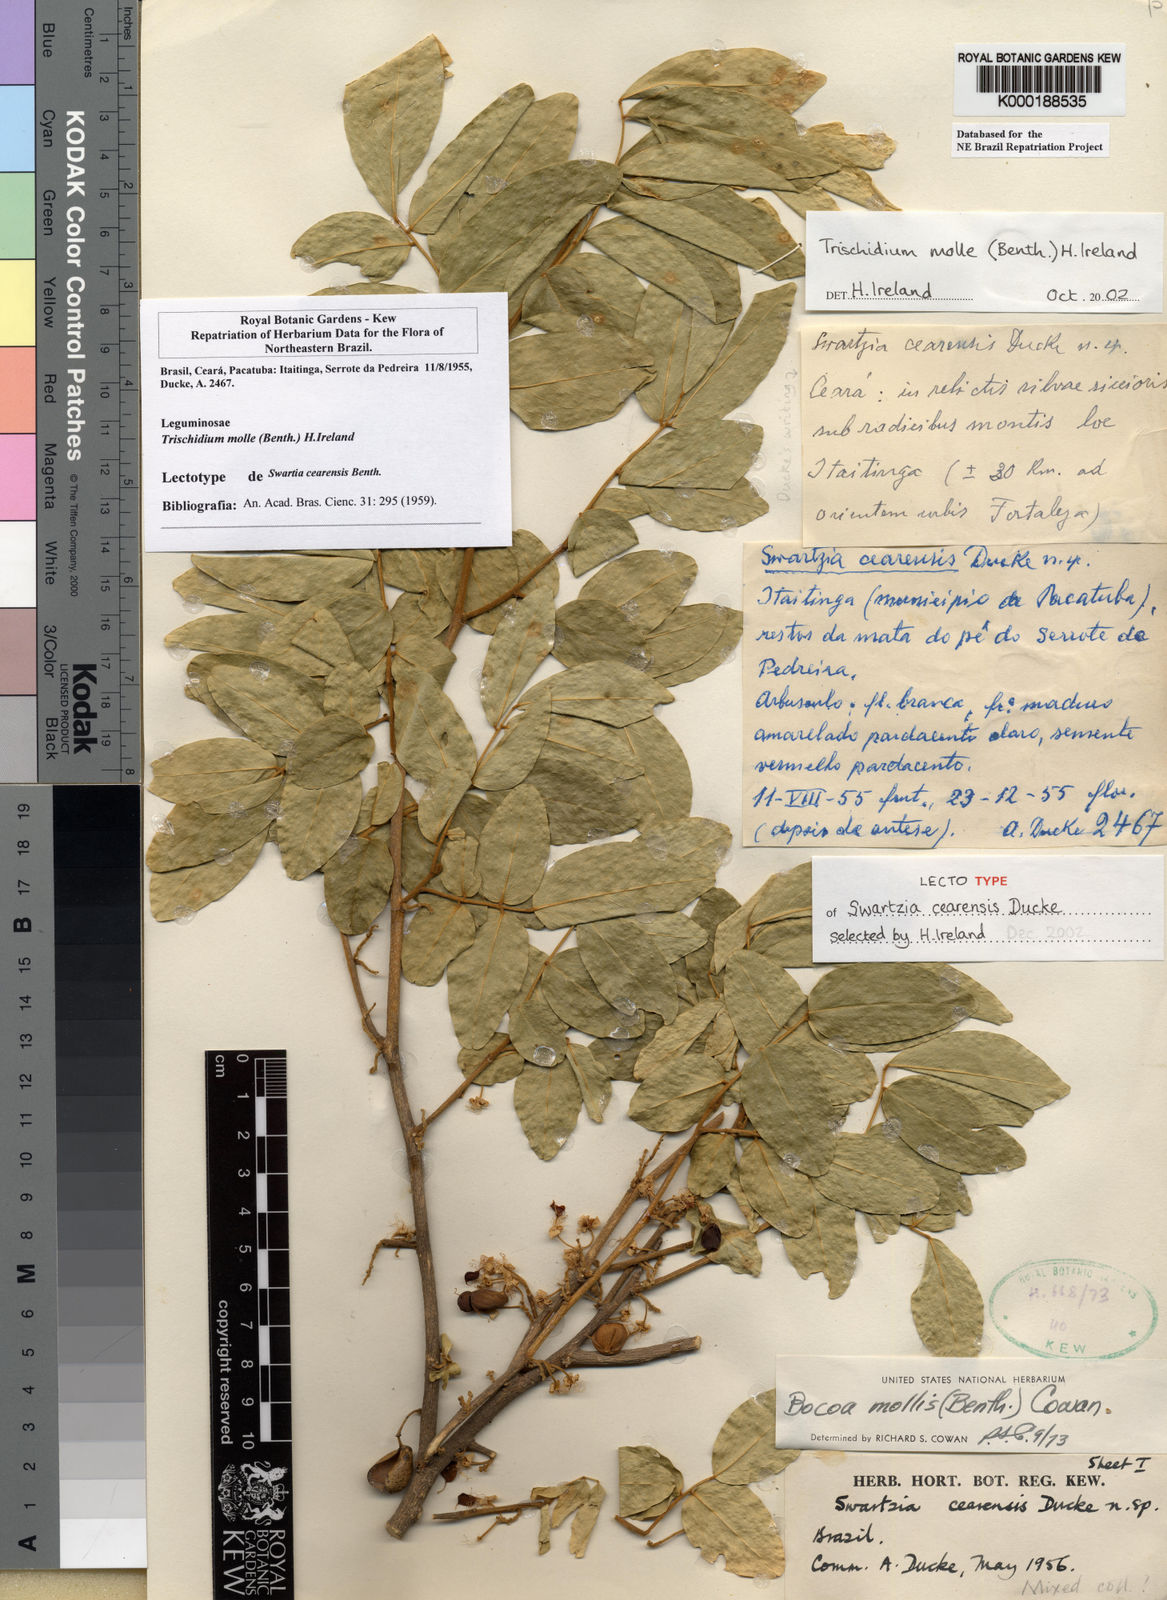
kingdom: Plantae
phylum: Tracheophyta
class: Magnoliopsida
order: Fabales
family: Fabaceae
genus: Trischidium
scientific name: Trischidium molle
